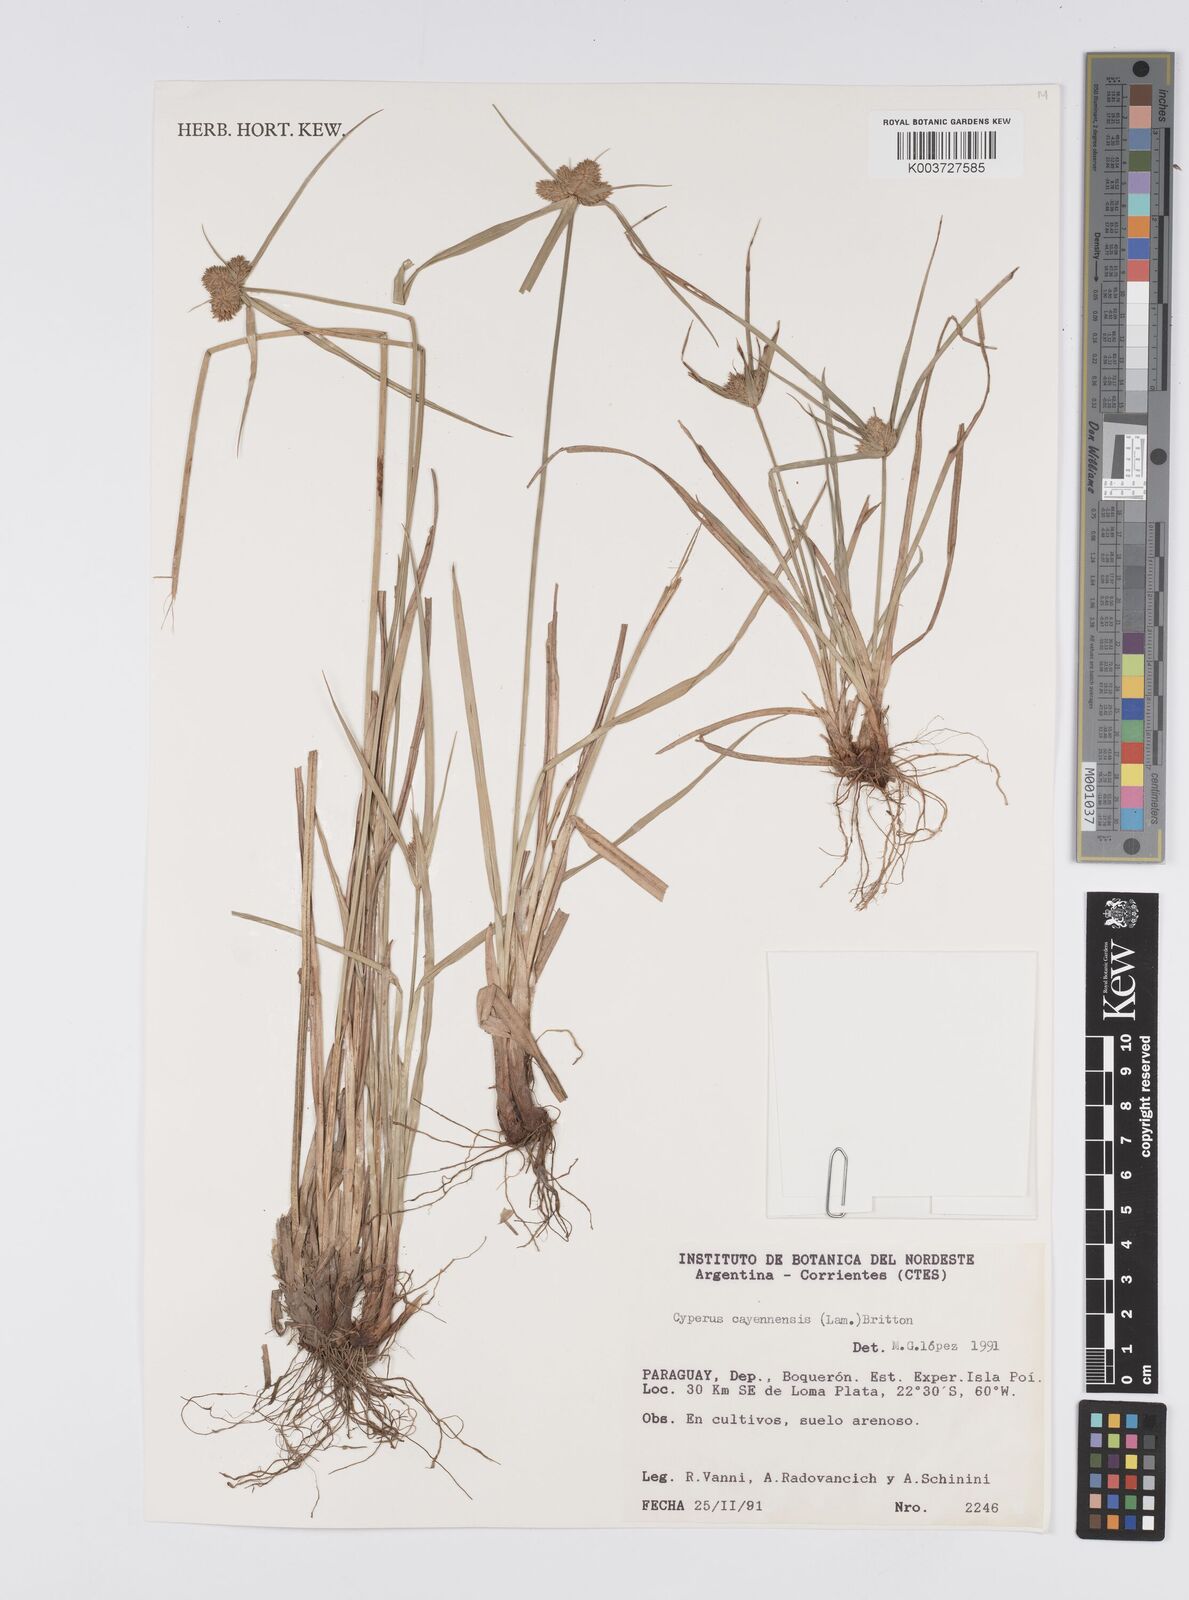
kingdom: Plantae
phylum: Tracheophyta
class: Liliopsida
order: Poales
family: Cyperaceae
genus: Cyperus
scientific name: Cyperus aggregatus
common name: Inflatedscale flatsedge
